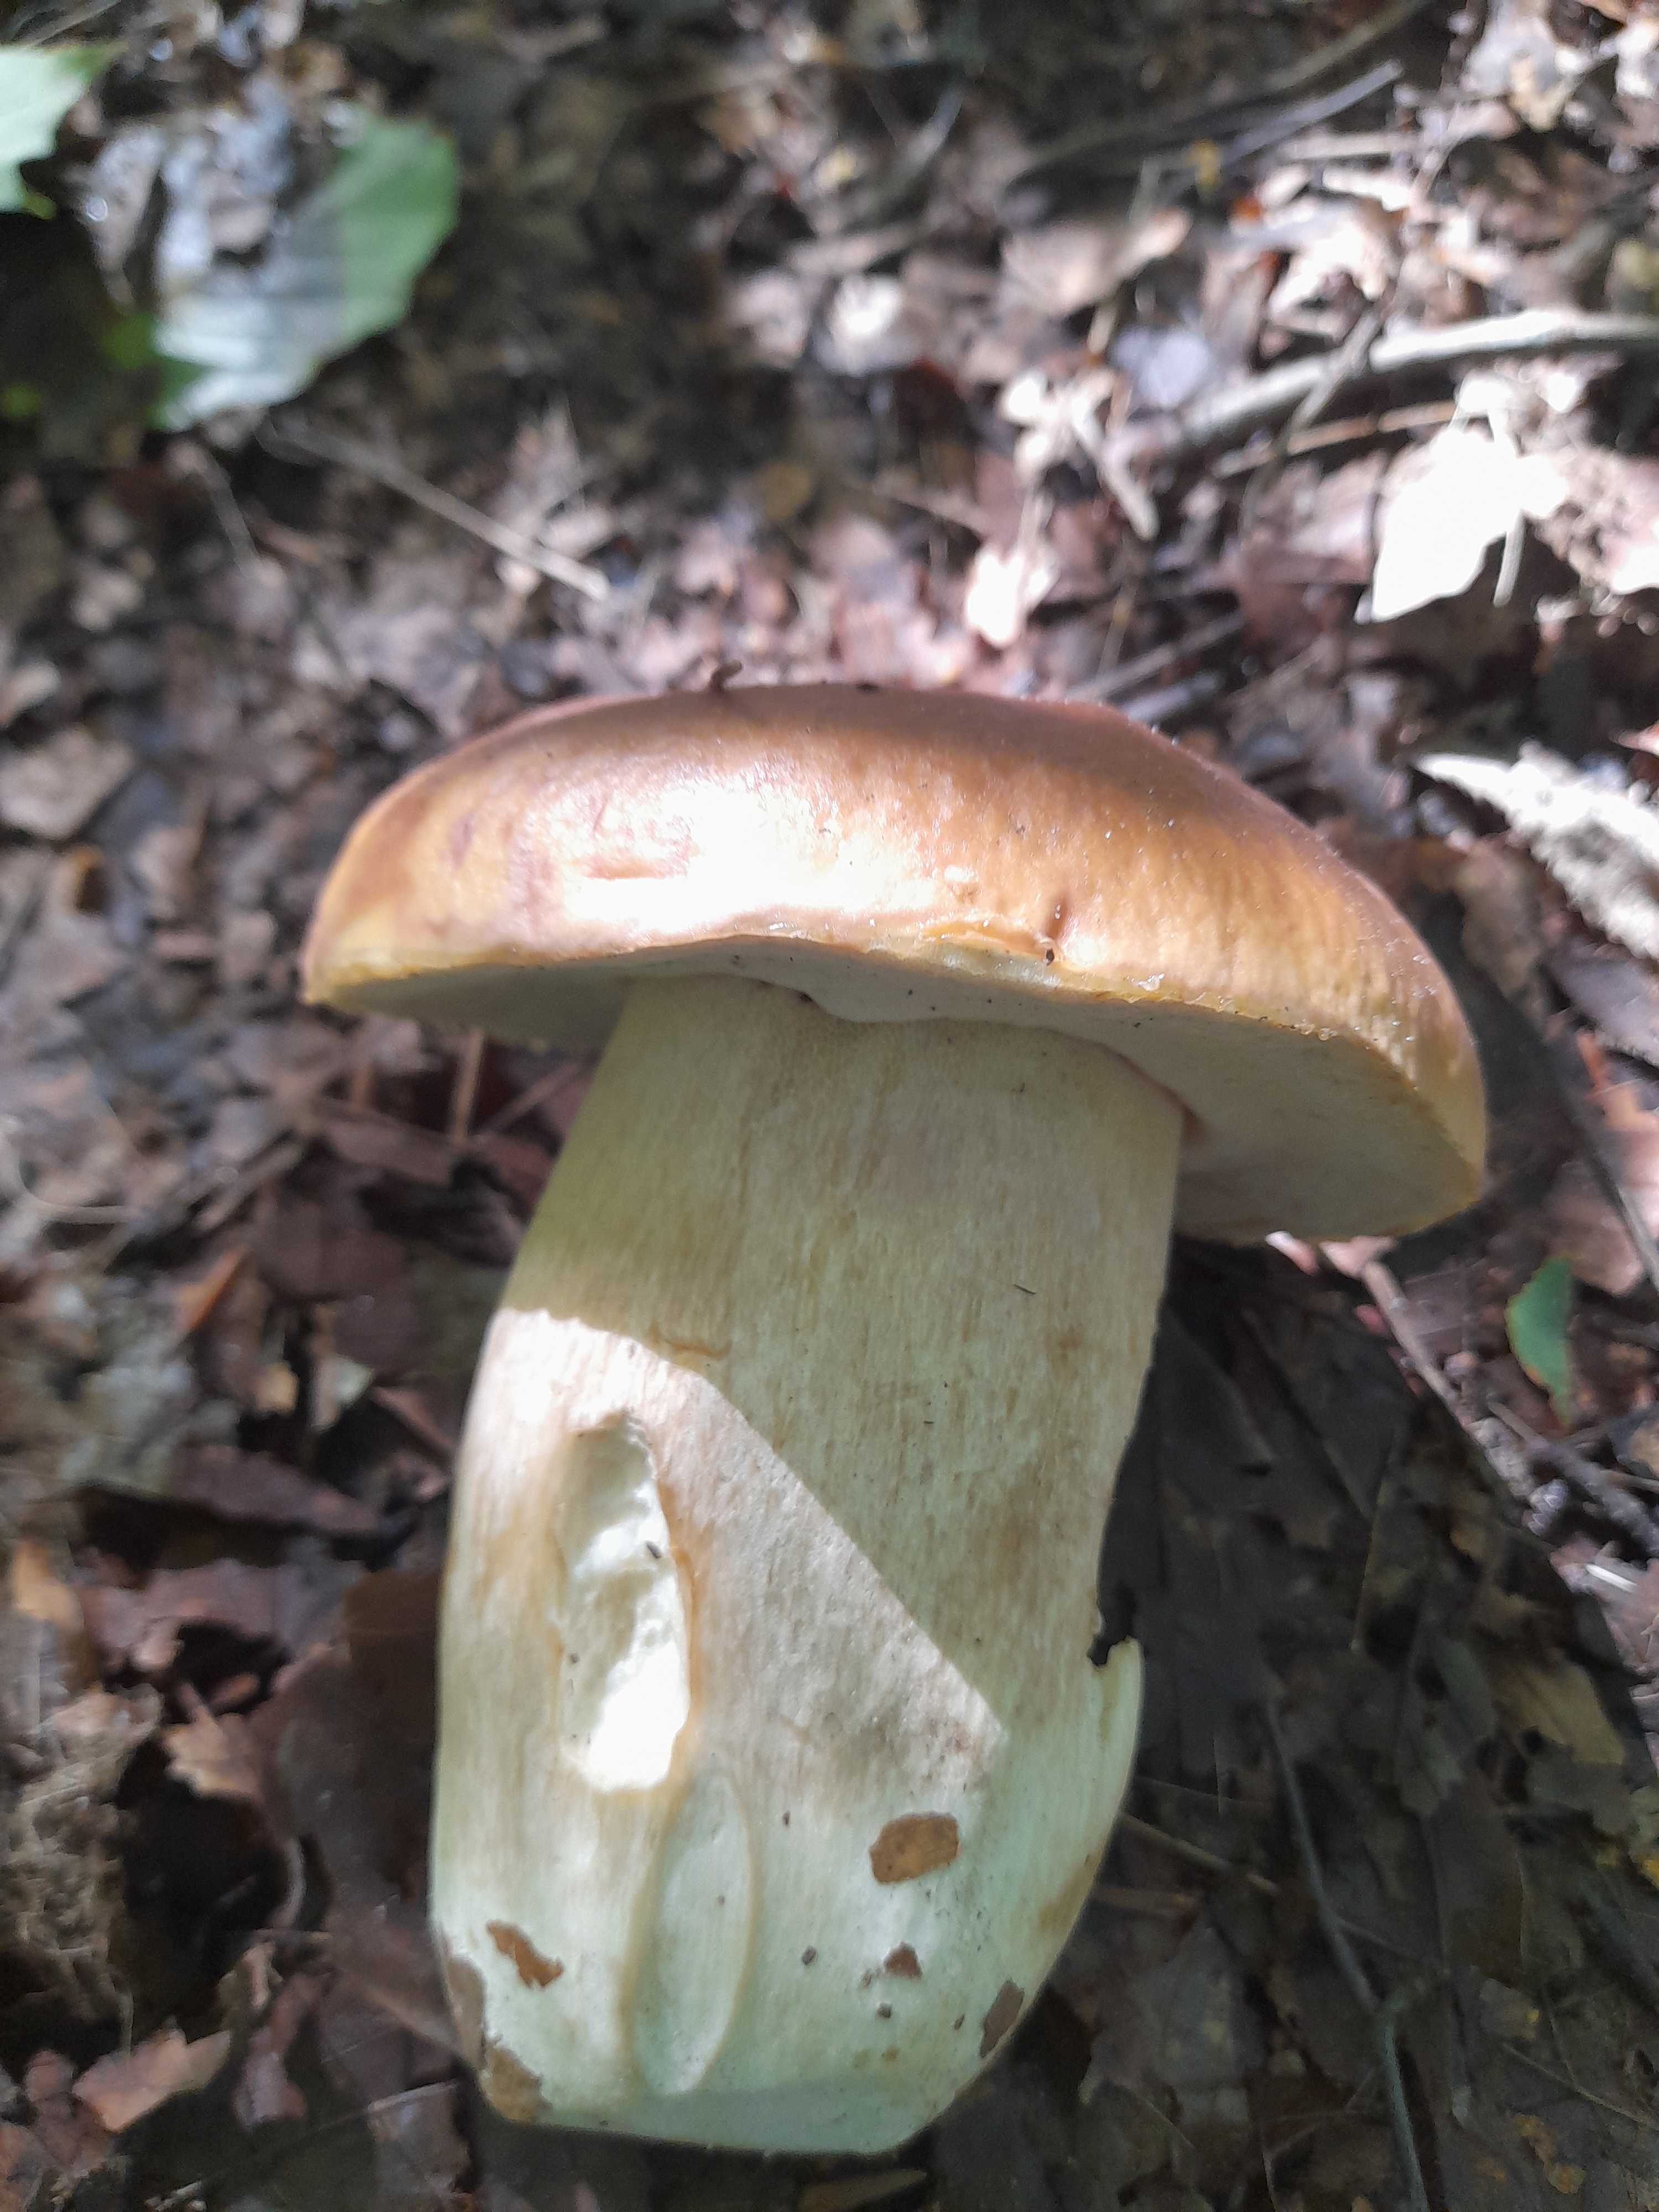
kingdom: Fungi
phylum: Basidiomycota
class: Agaricomycetes
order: Boletales
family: Boletaceae
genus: Boletus
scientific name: Boletus edulis
